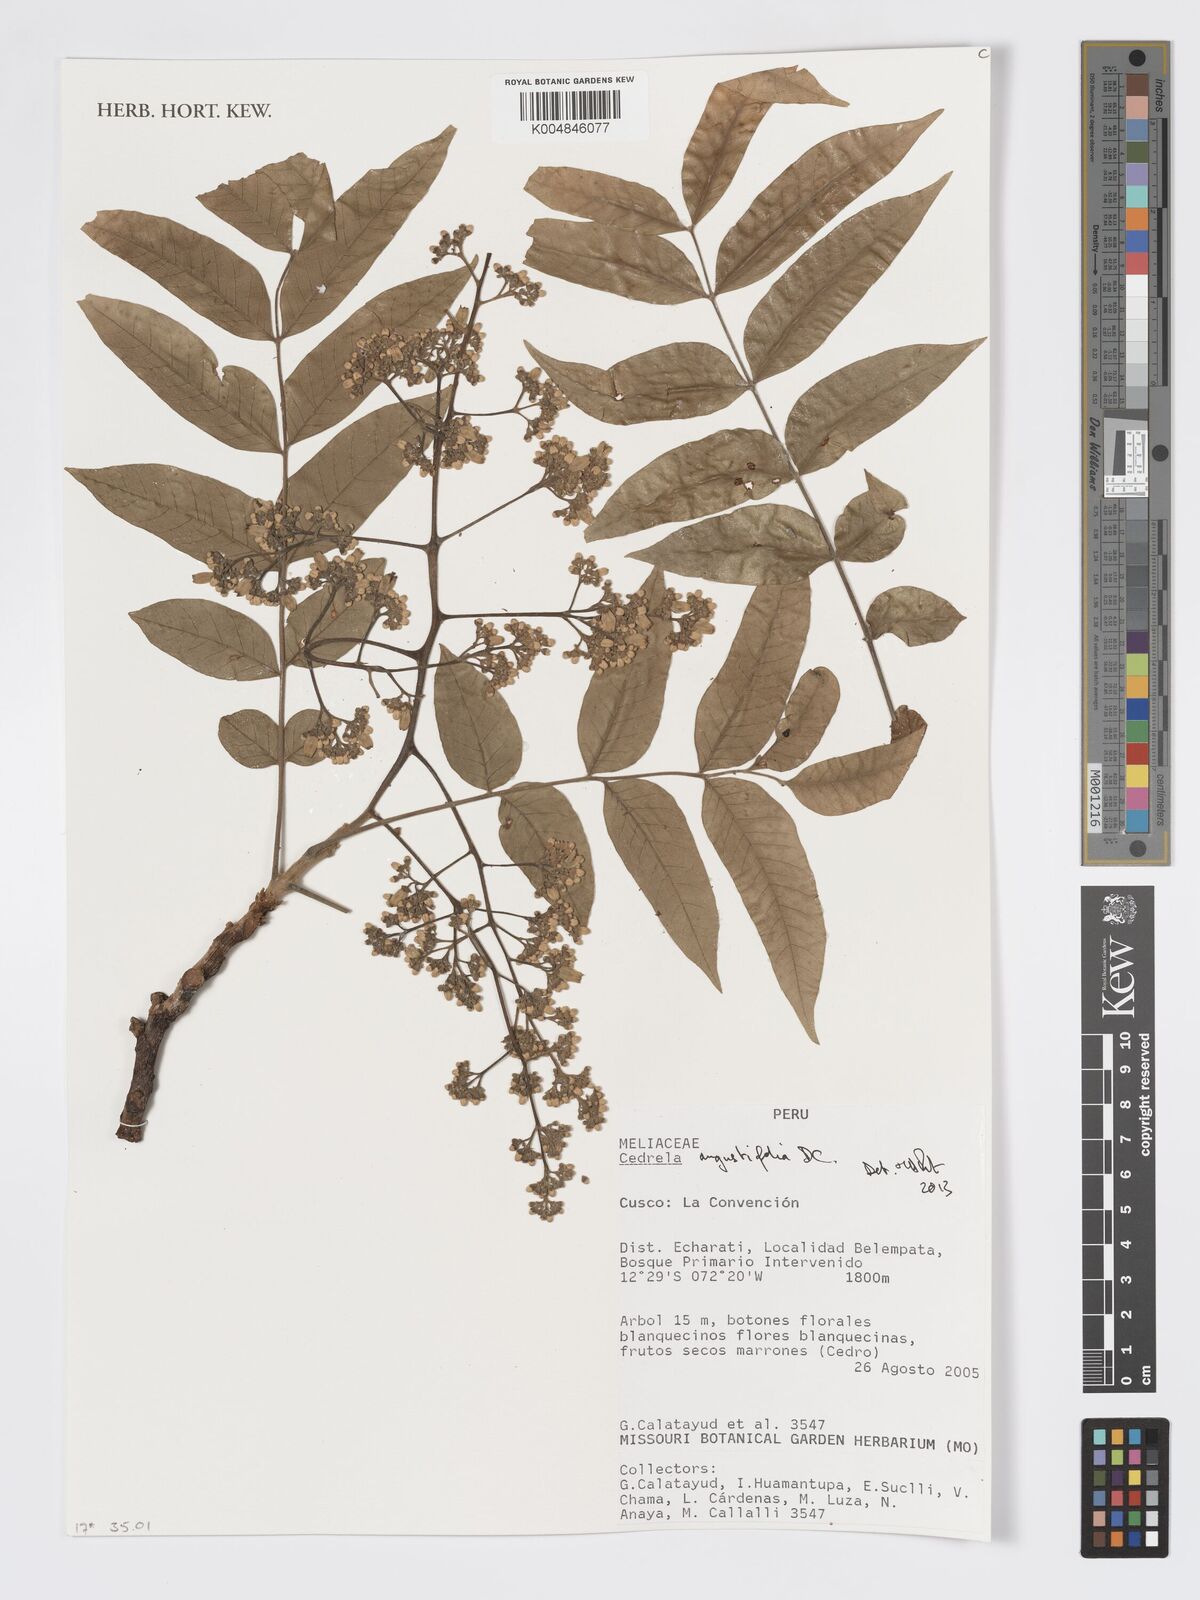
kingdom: Plantae
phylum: Tracheophyta
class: Magnoliopsida
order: Sapindales
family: Meliaceae
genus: Cedrela
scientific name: Cedrela odorata
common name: Red cedar
